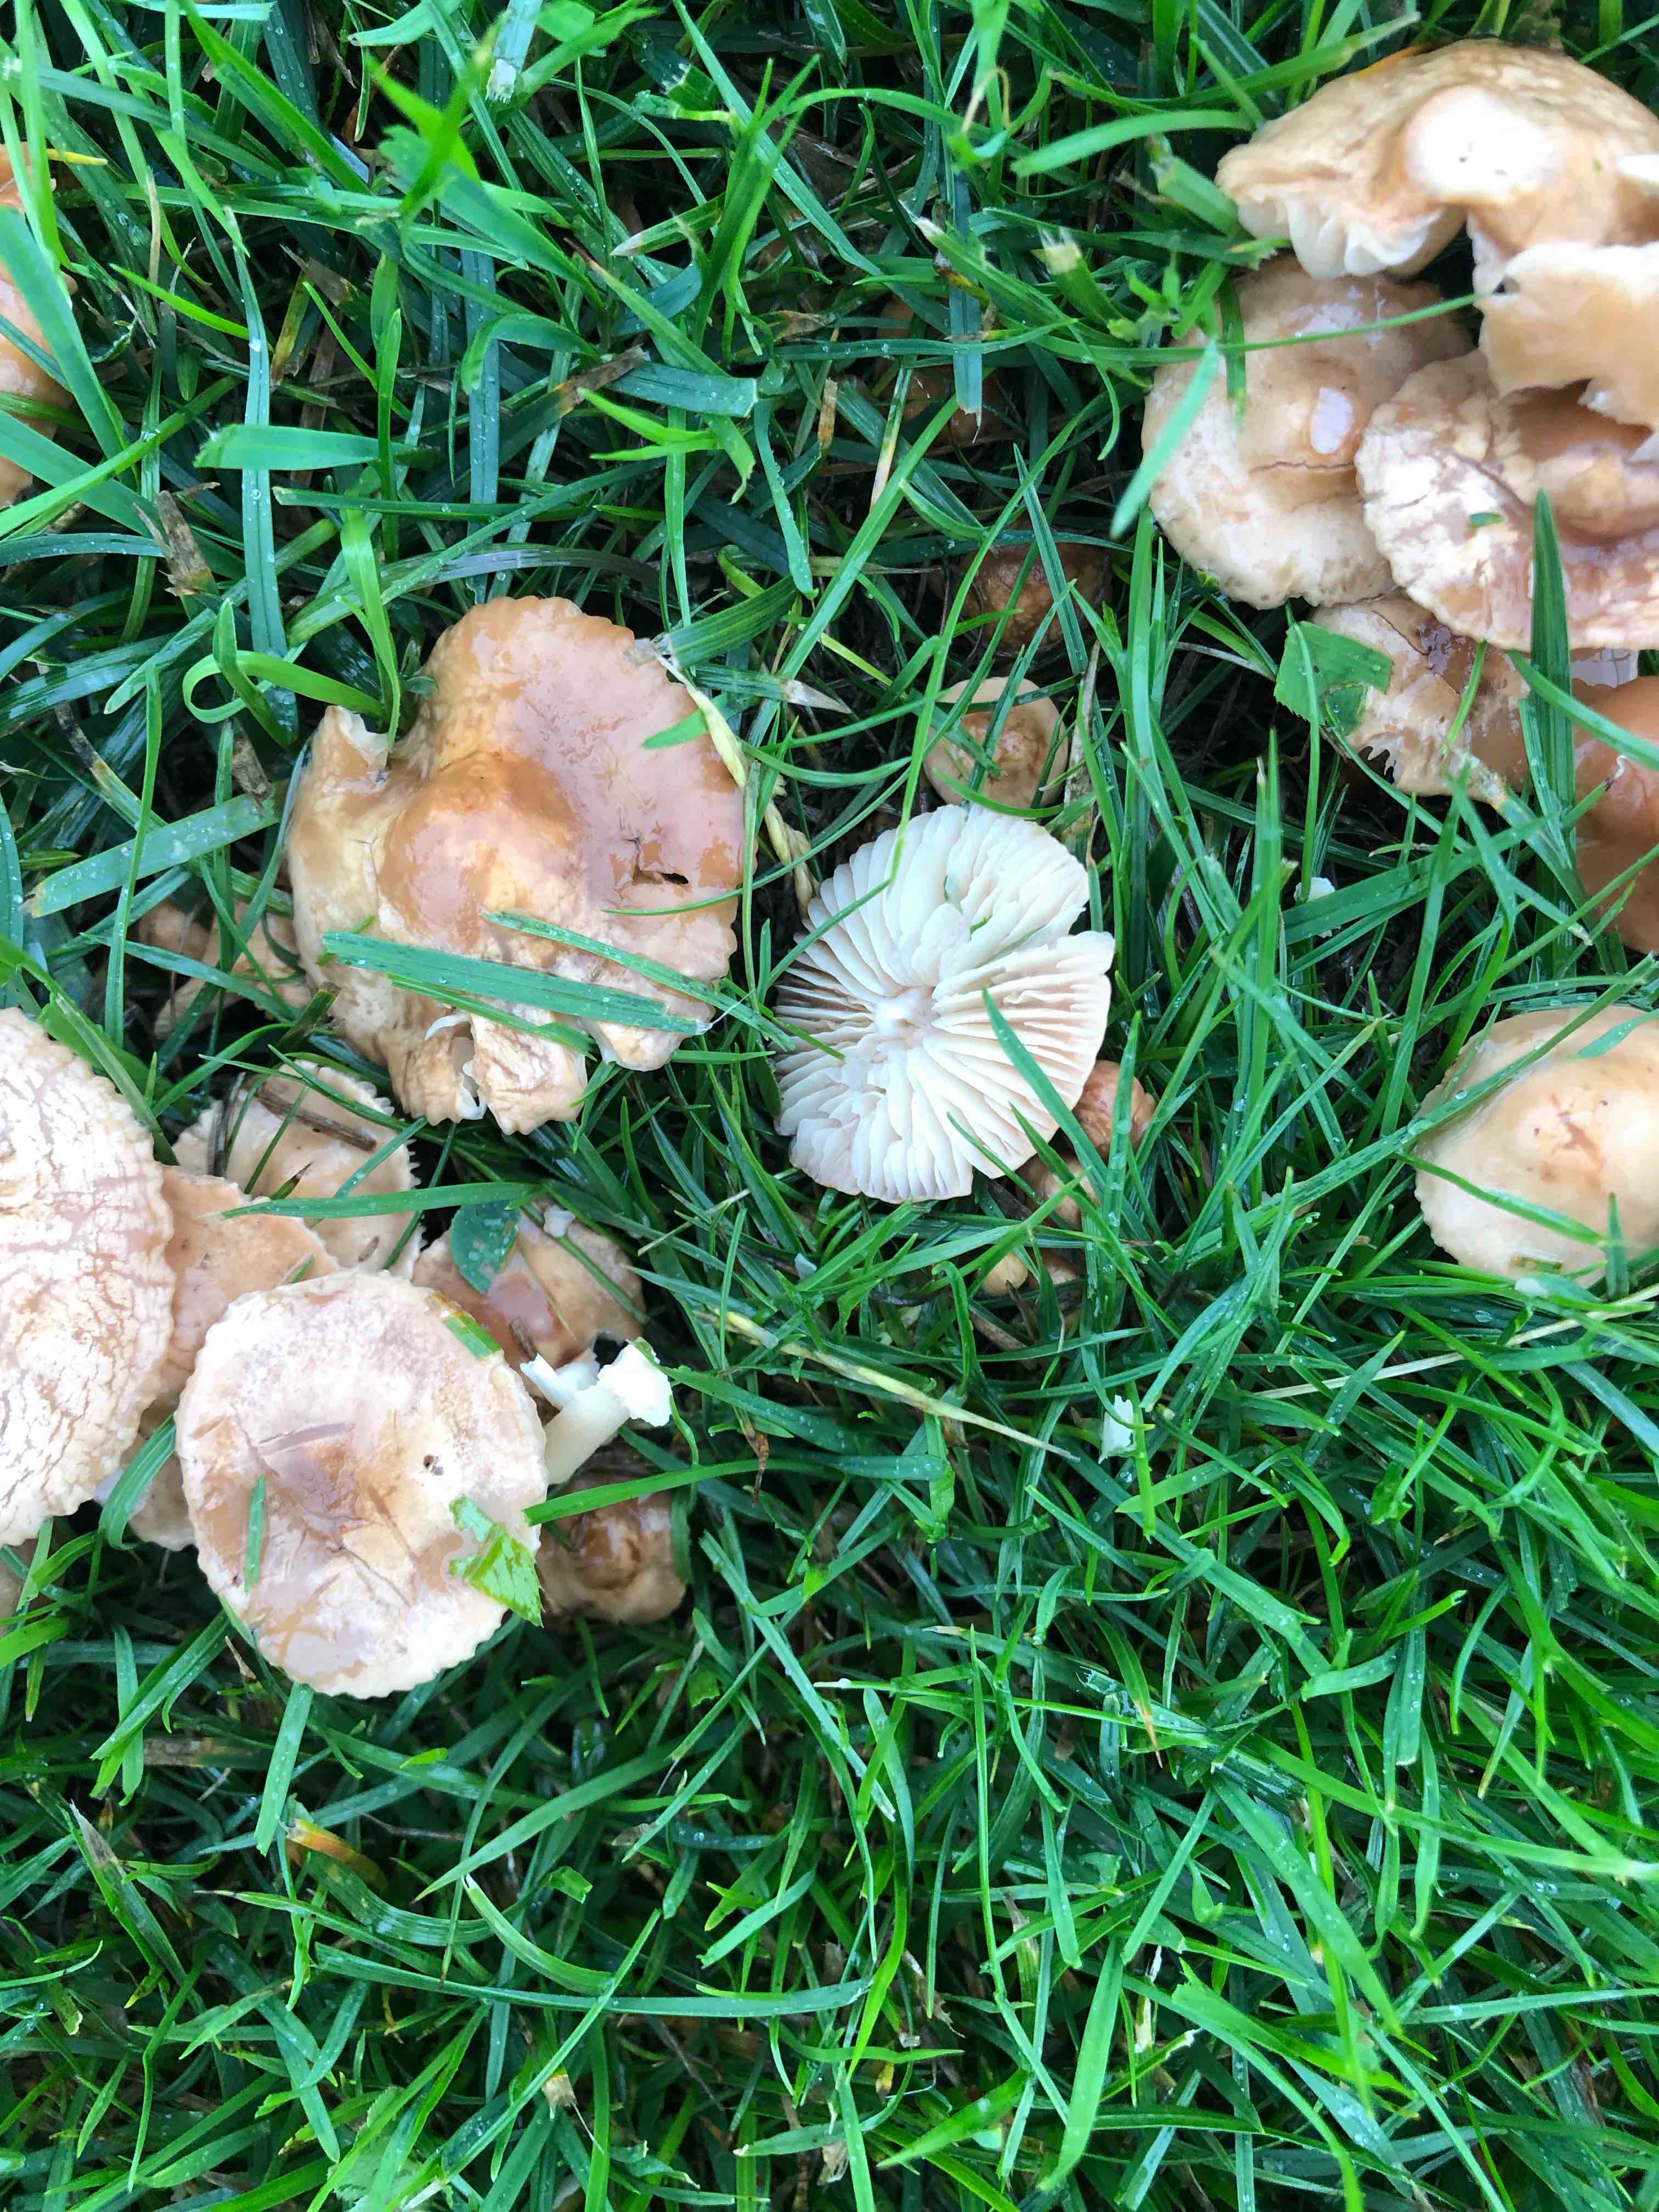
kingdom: Fungi
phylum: Basidiomycota
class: Agaricomycetes
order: Agaricales
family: Marasmiaceae
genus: Marasmius
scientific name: Marasmius oreades
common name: elledans-bruskhat
